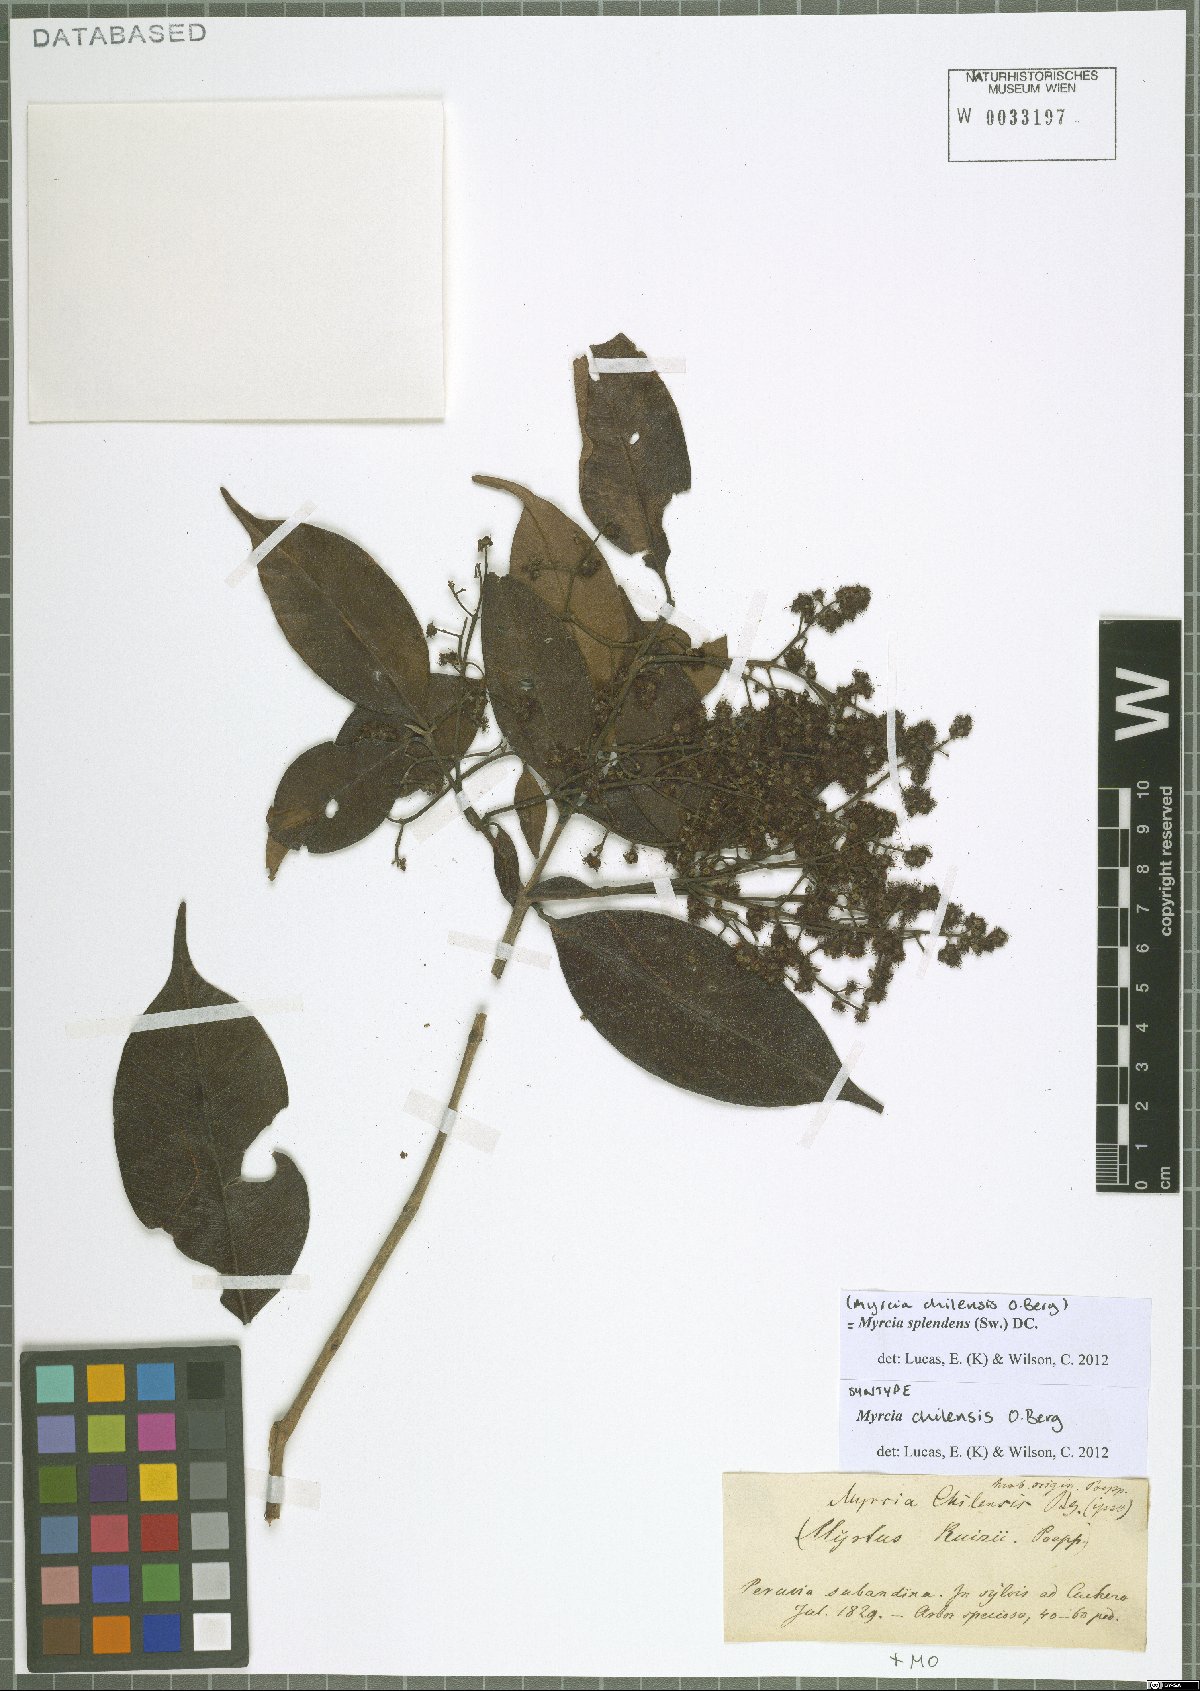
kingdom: Plantae
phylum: Tracheophyta
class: Magnoliopsida
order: Myrtales
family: Myrtaceae
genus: Myrcia
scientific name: Myrcia splendens
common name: Surinam cherry
